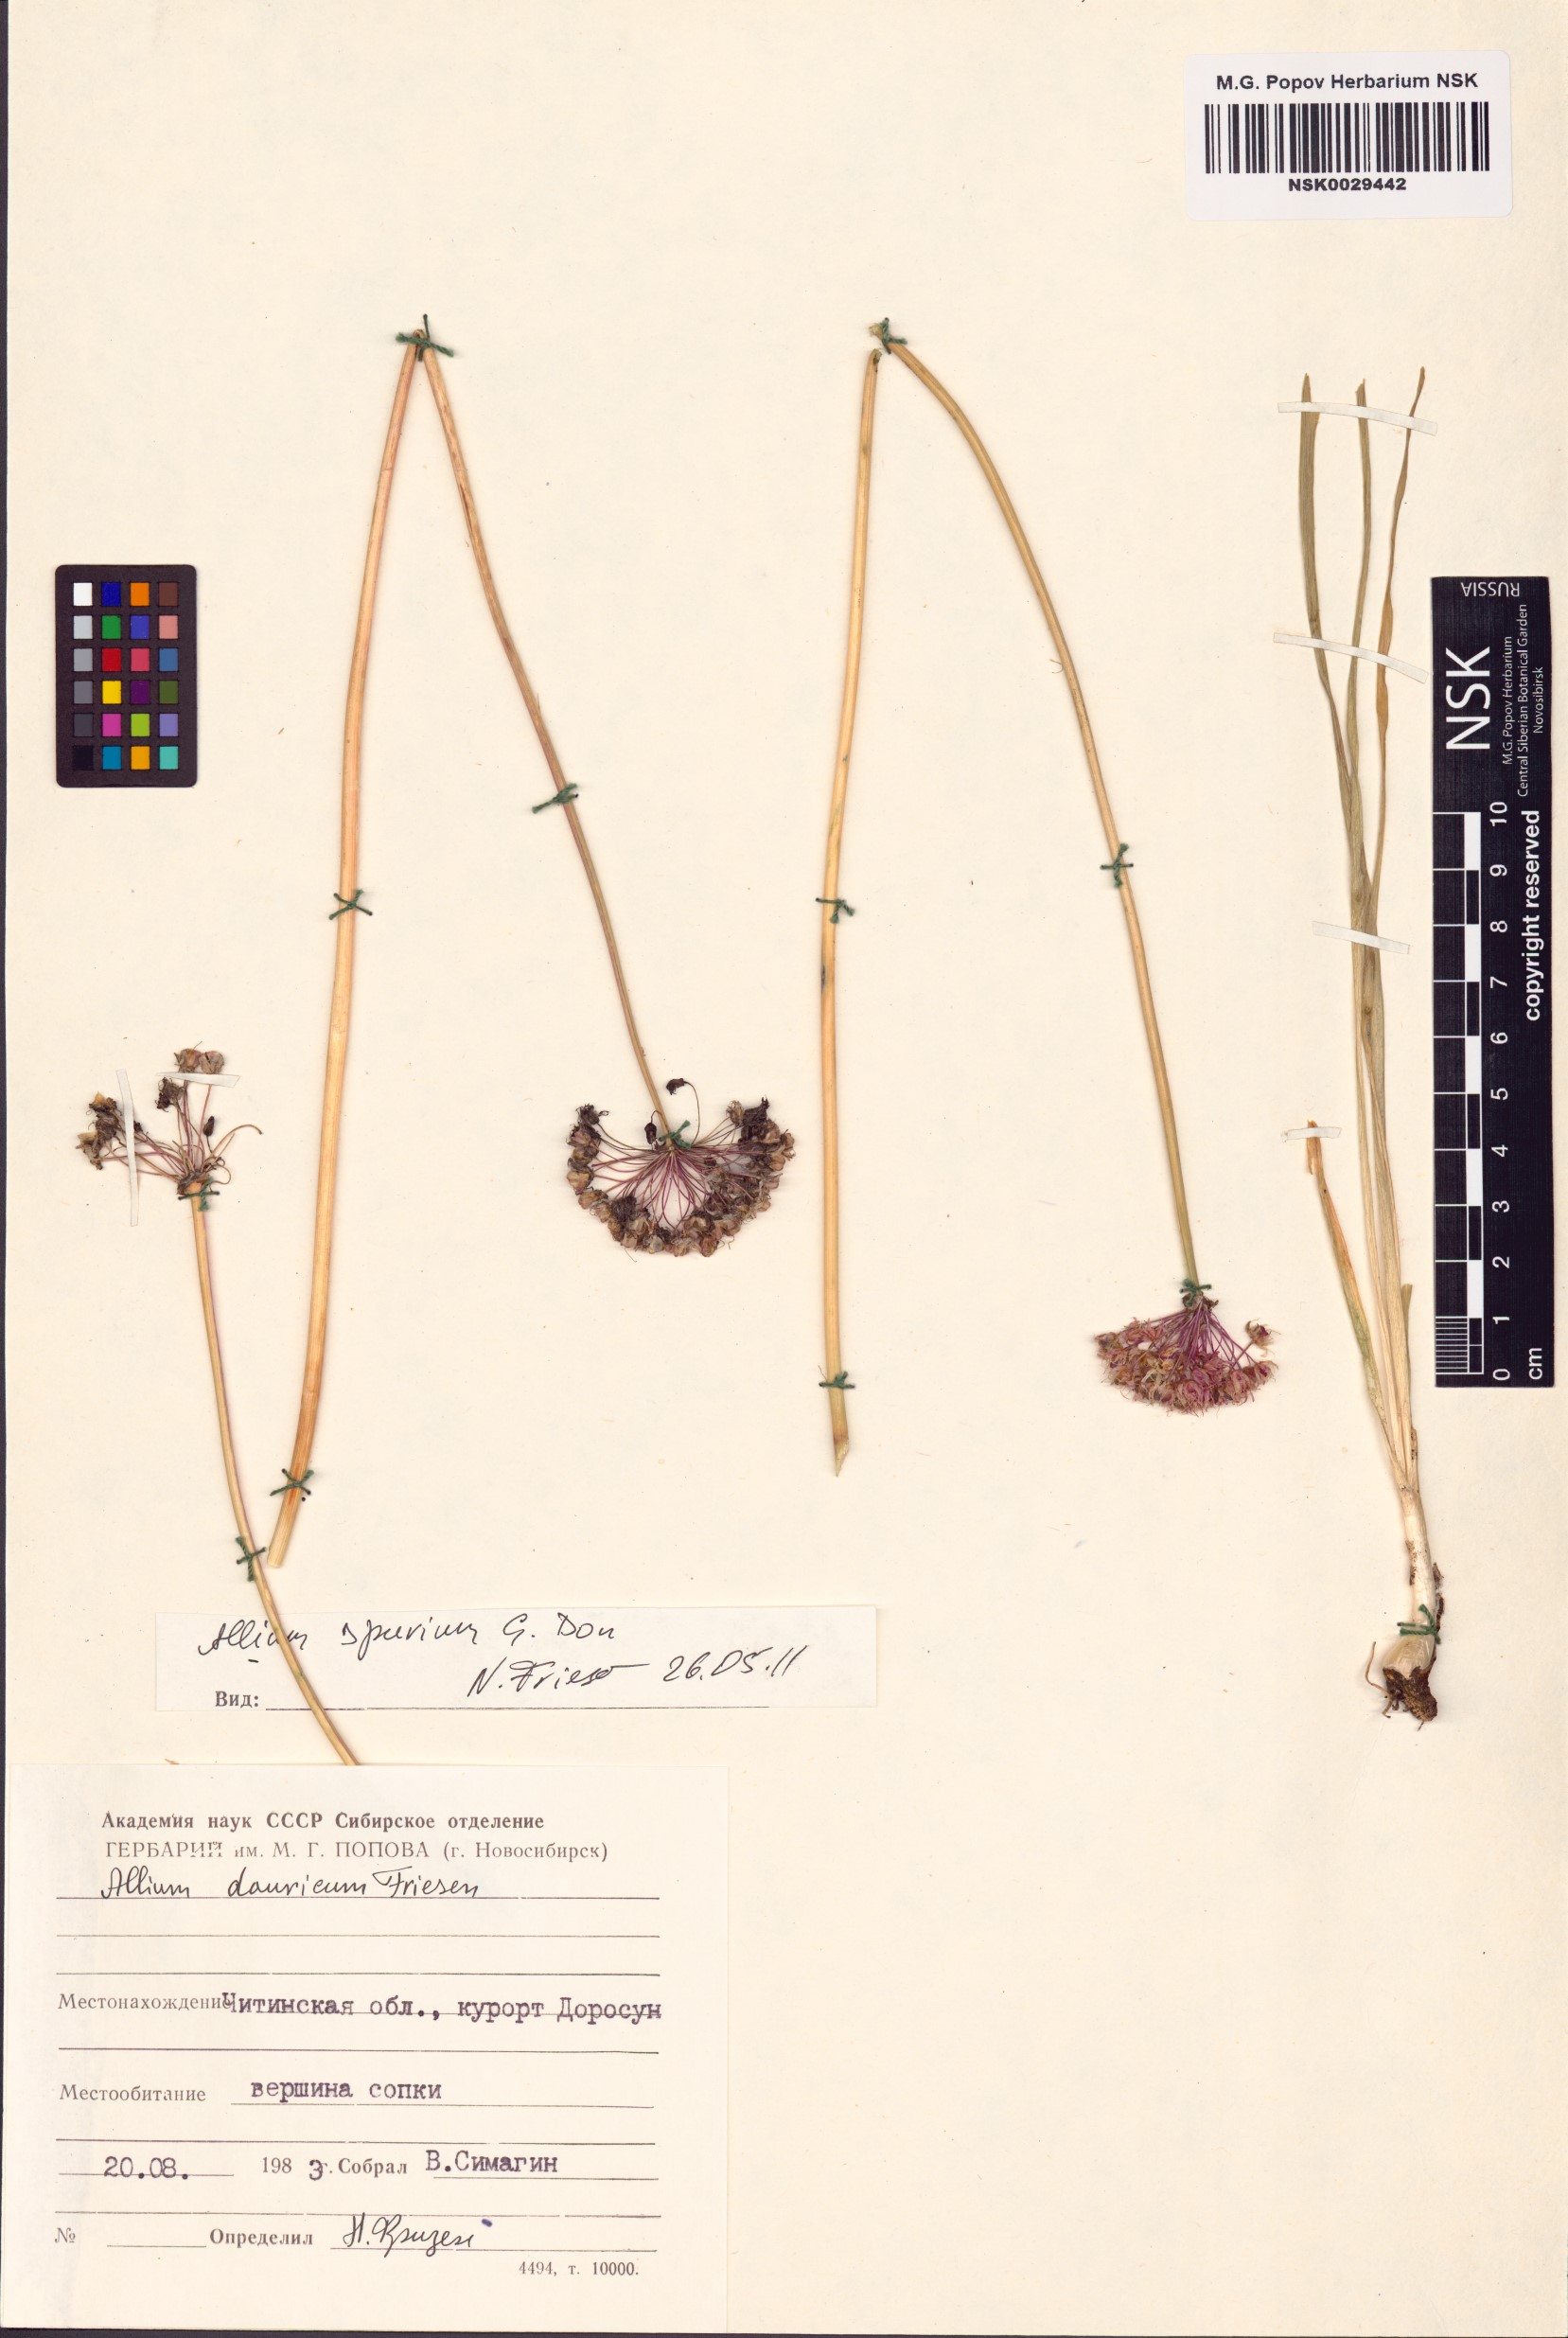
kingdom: Plantae
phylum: Tracheophyta
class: Liliopsida
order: Asparagales
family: Amaryllidaceae
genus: Allium
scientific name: Allium spurium
